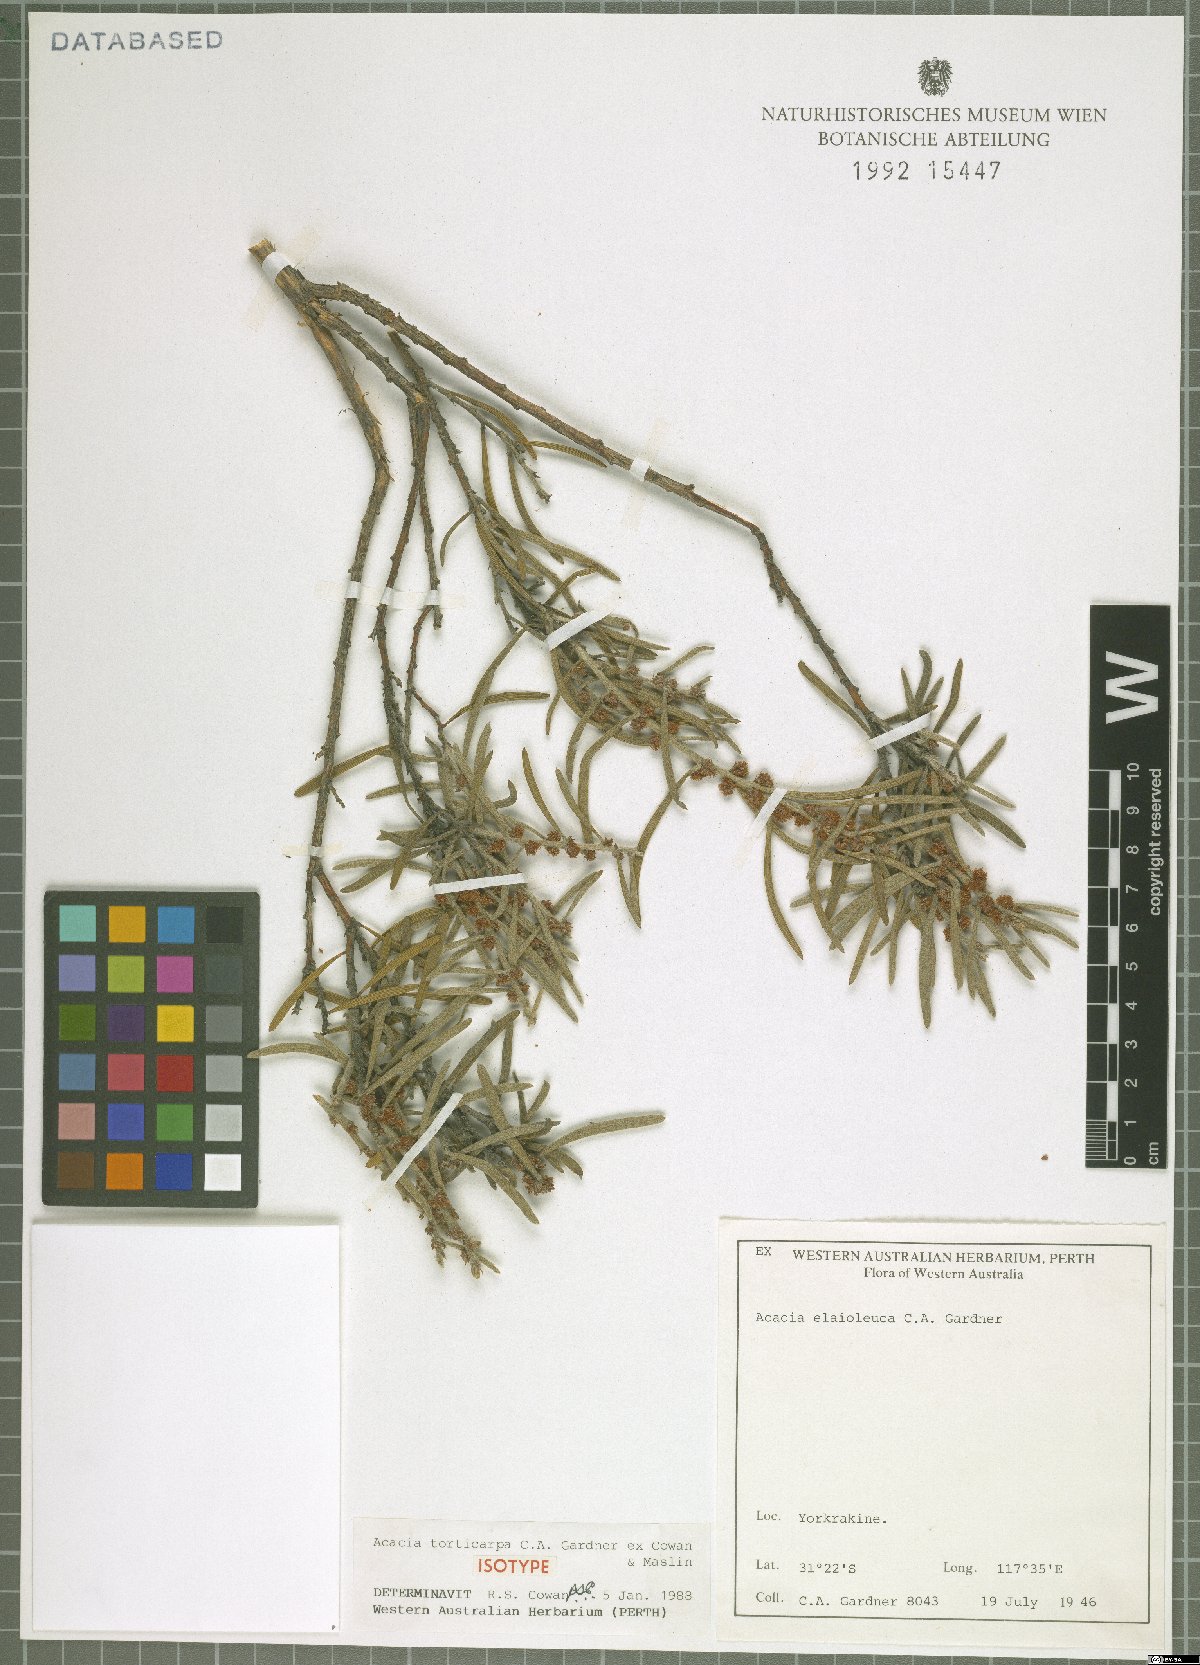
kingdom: Plantae
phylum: Tracheophyta
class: Magnoliopsida
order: Fabales
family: Fabaceae
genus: Acacia
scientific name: Acacia torticarpa
